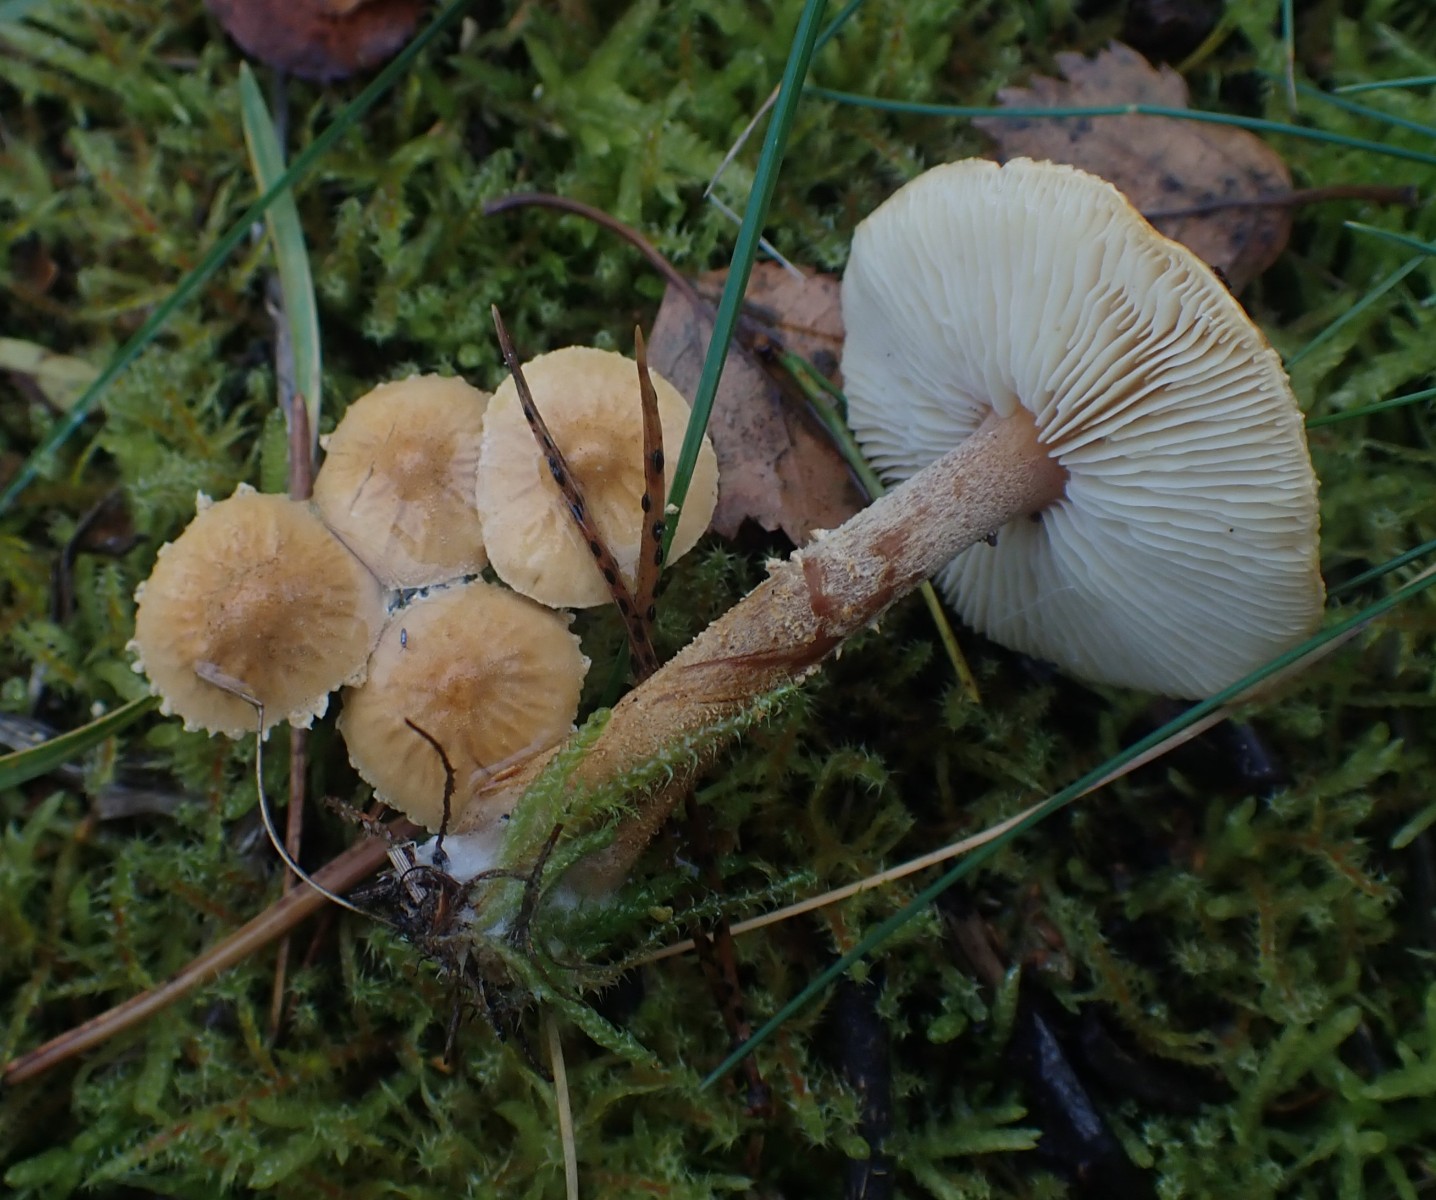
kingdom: Fungi
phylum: Basidiomycota
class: Agaricomycetes
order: Agaricales
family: Tricholomataceae
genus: Cystoderma
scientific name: Cystoderma amianthinum
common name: okkergul grynhat
